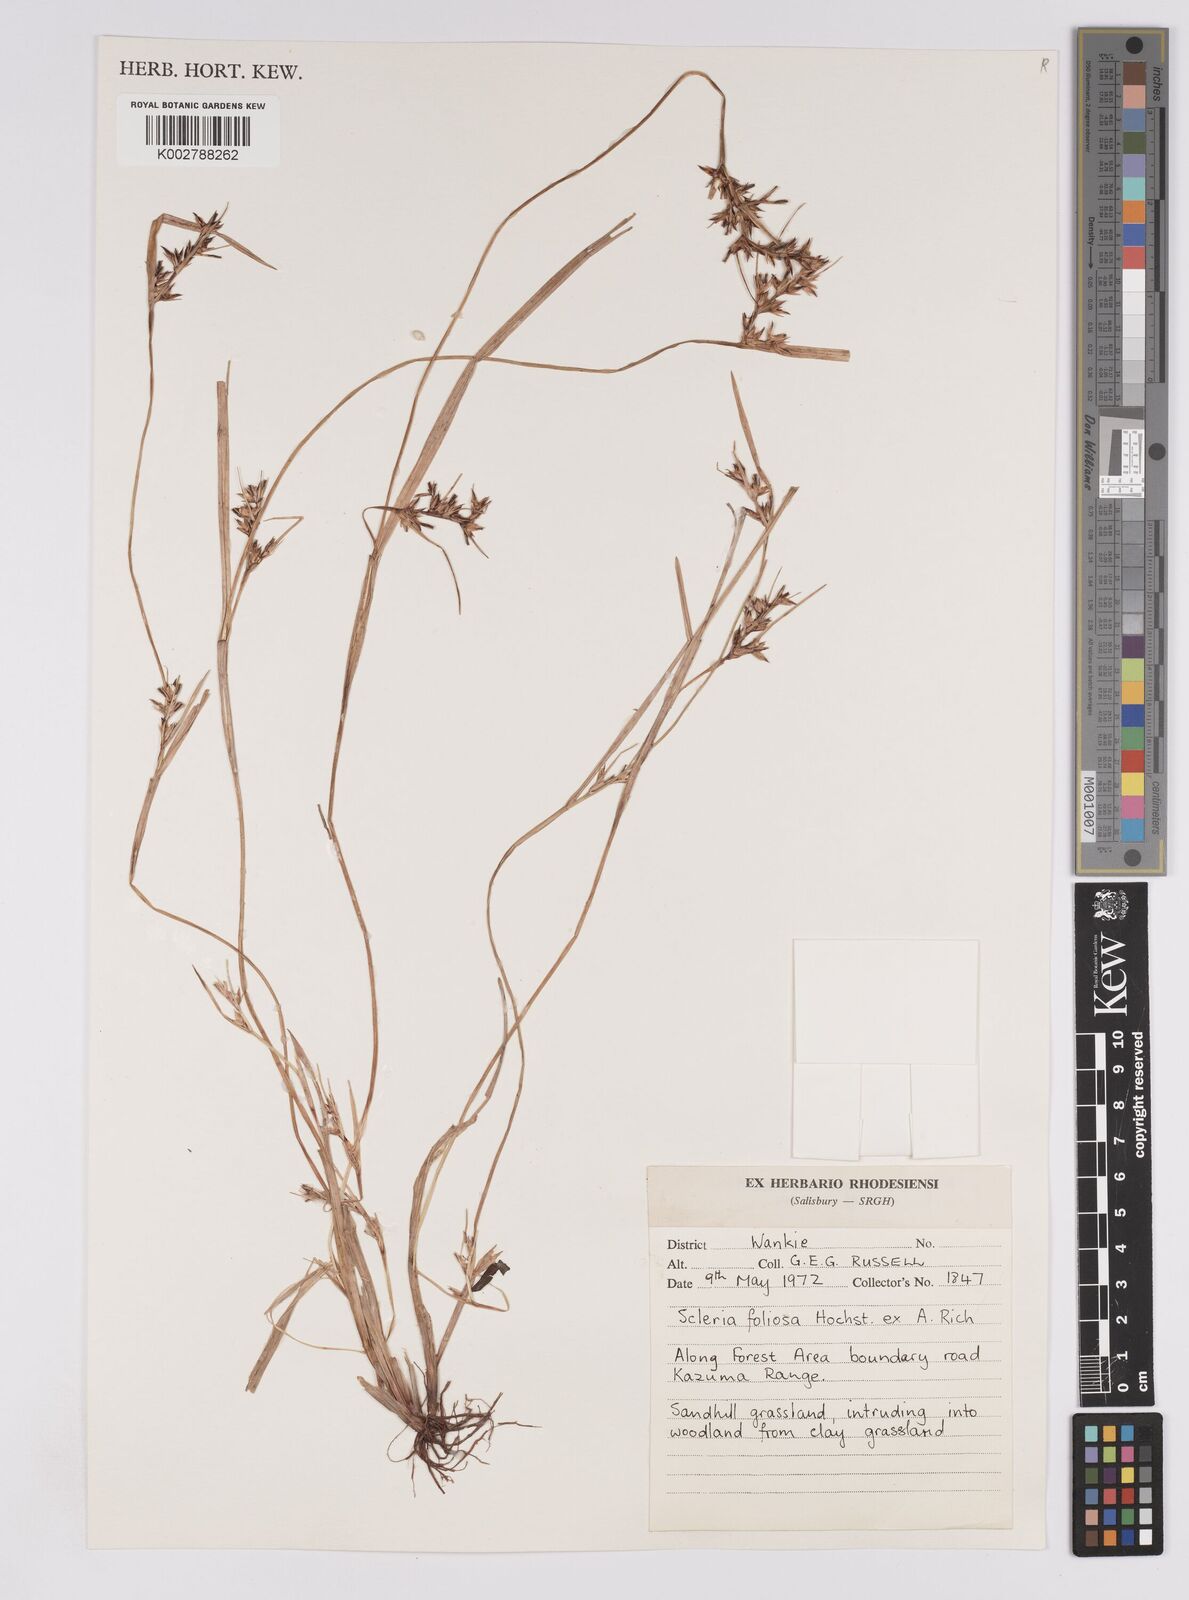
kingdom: Plantae
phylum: Tracheophyta
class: Liliopsida
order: Poales
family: Cyperaceae
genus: Scleria
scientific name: Scleria foliosa
